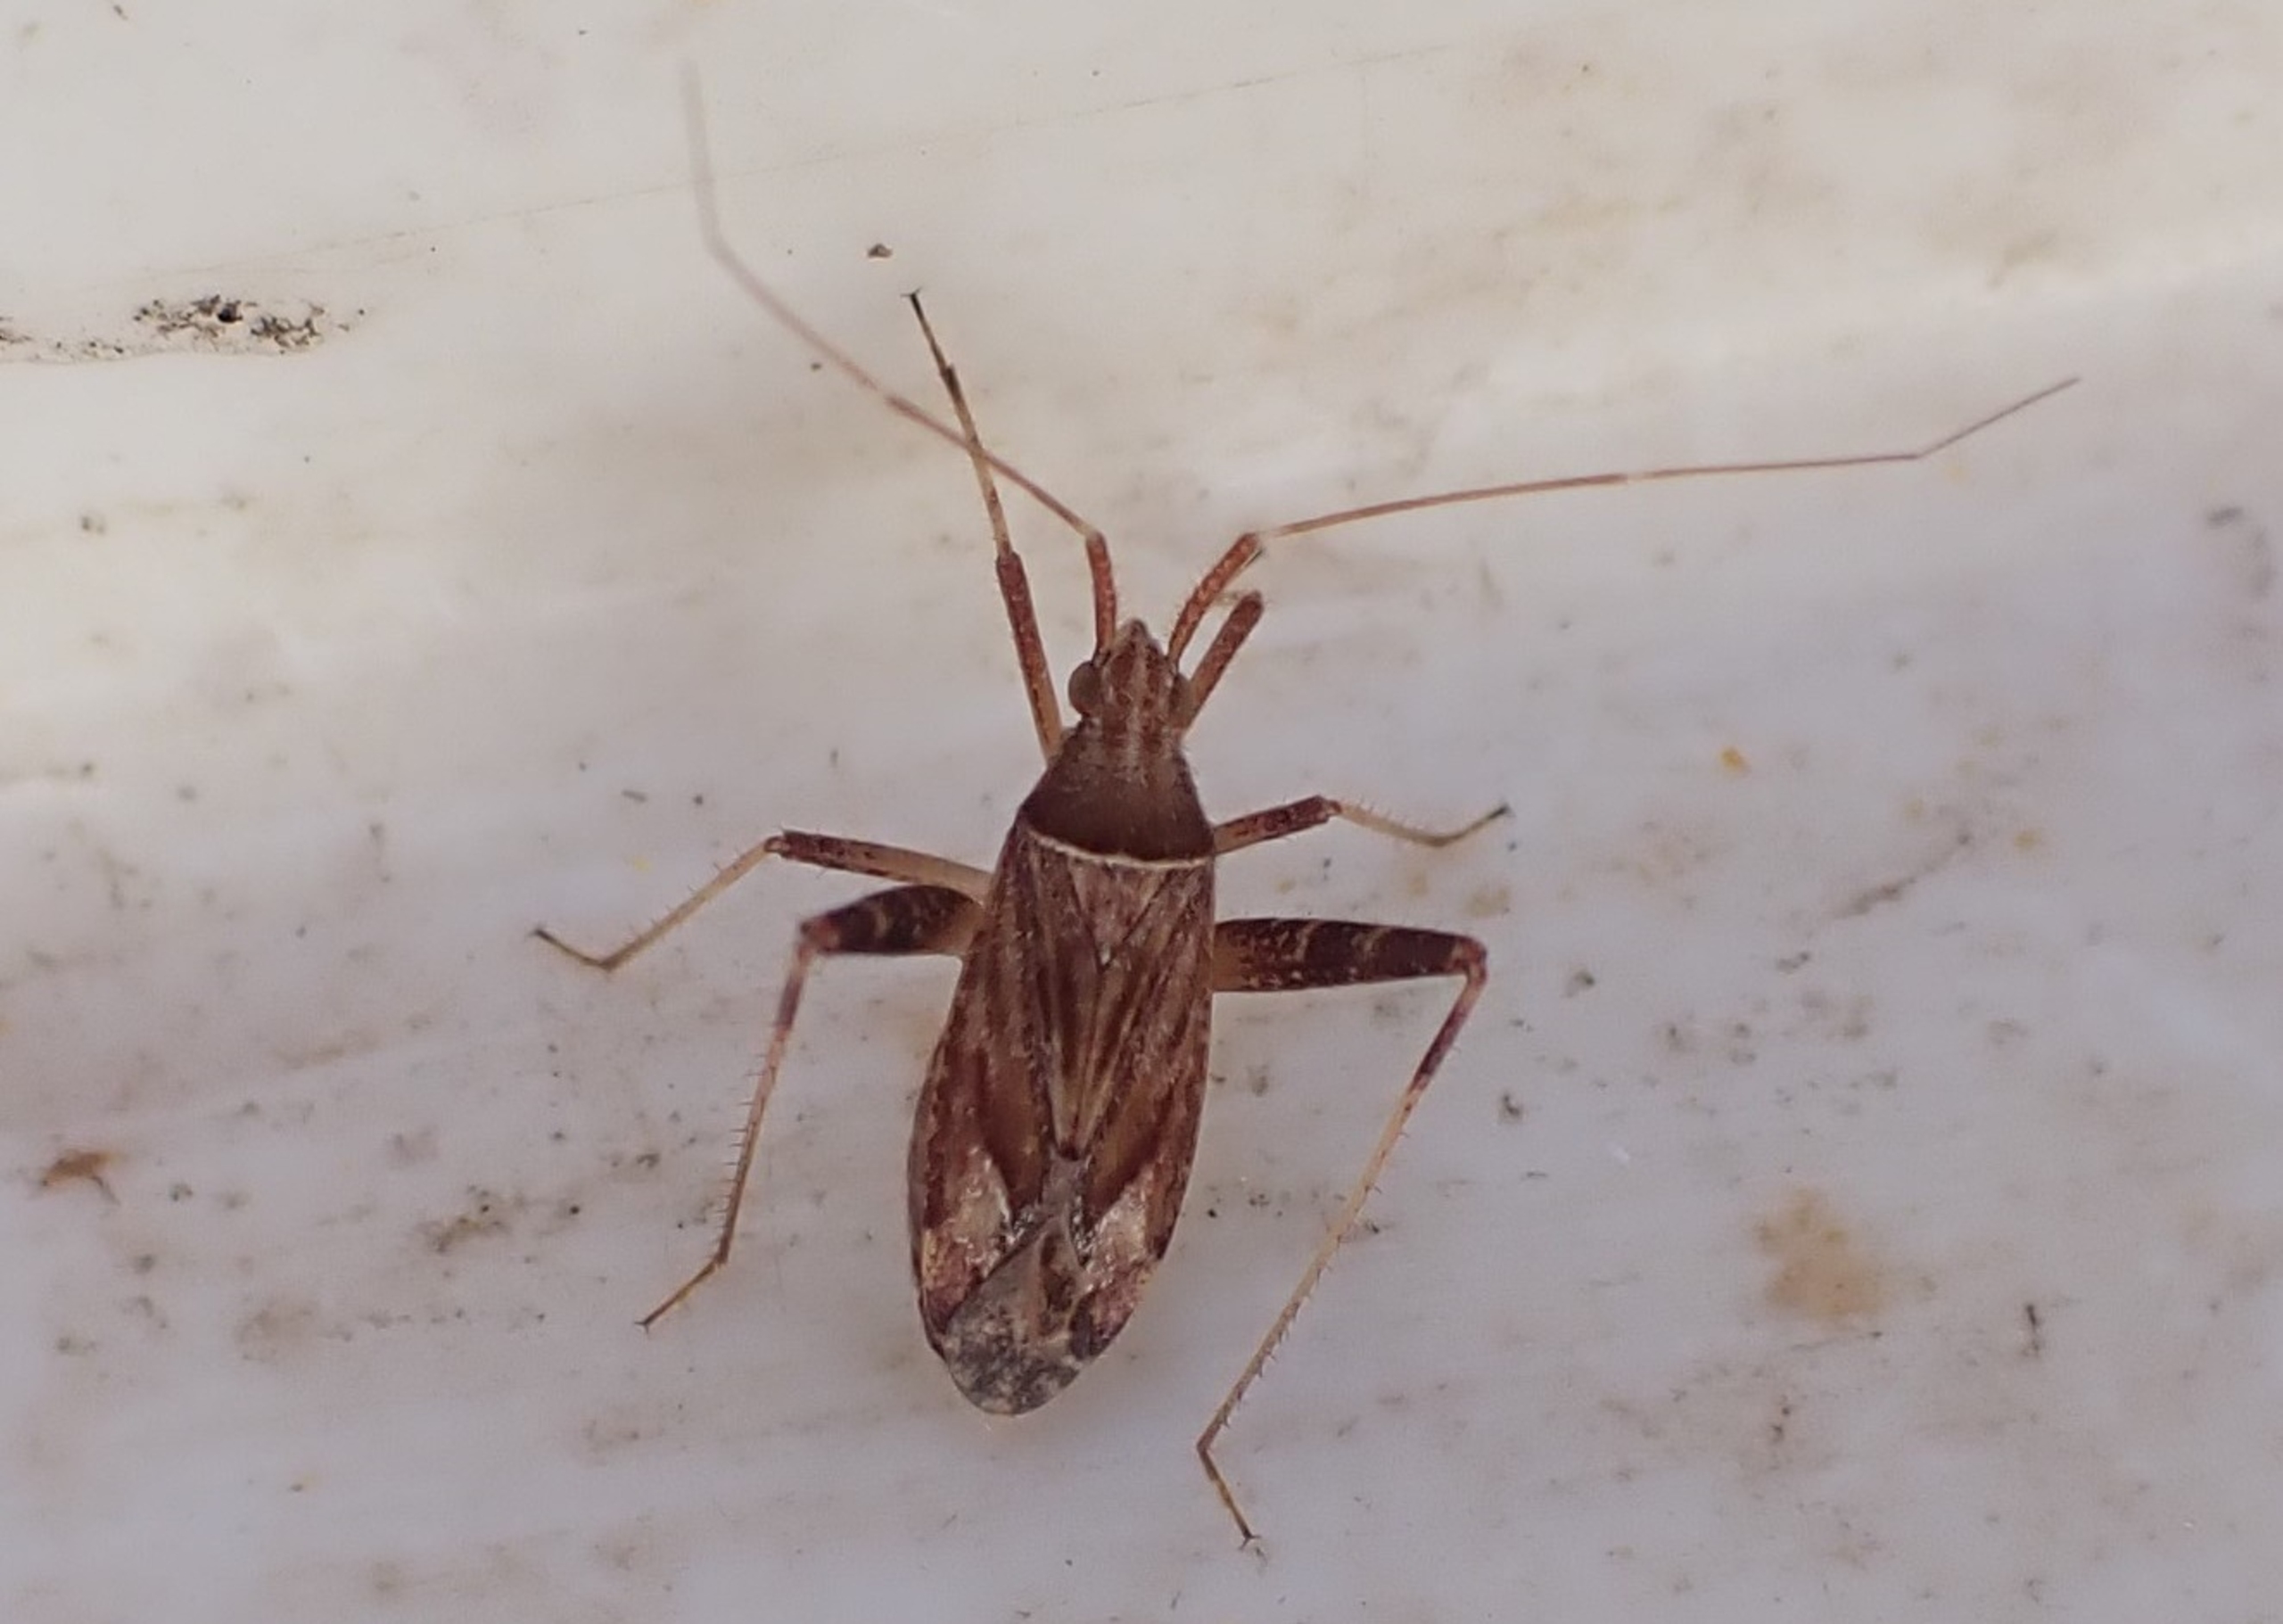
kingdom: Animalia
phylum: Arthropoda
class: Insecta
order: Hemiptera
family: Miridae
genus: Phytocoris
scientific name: Phytocoris varipes
